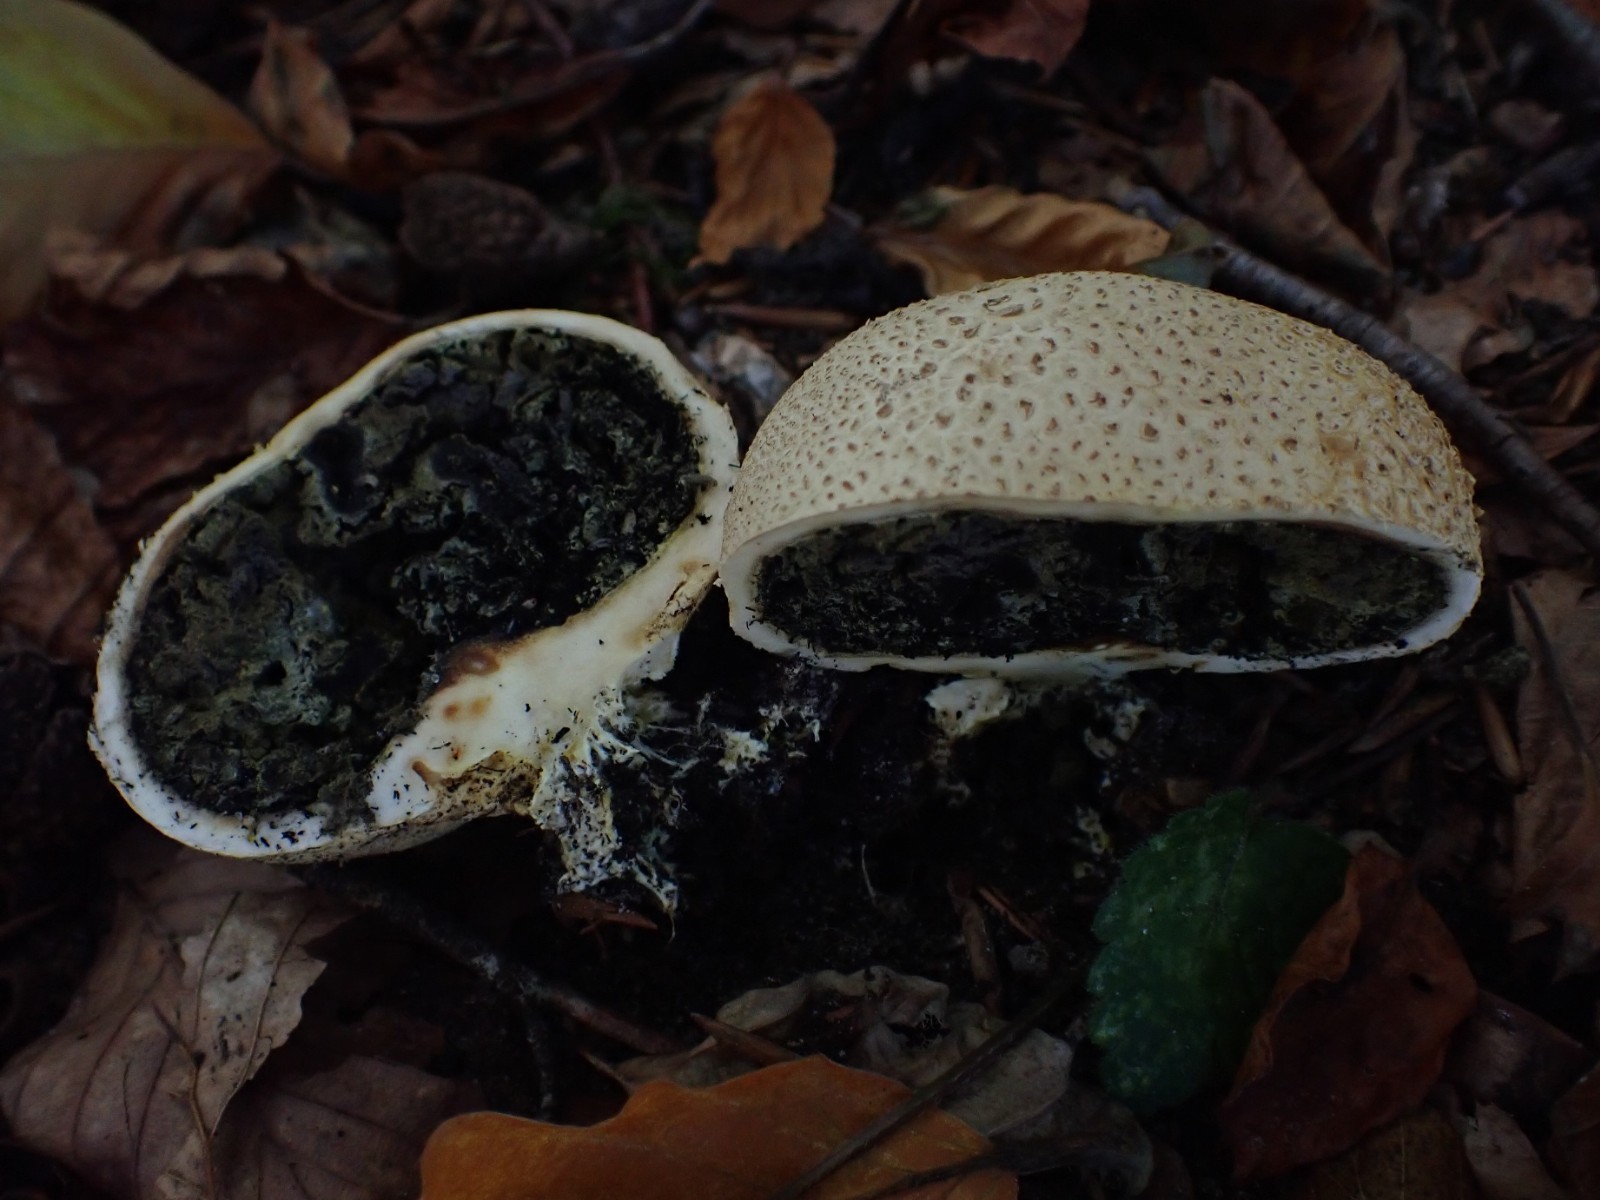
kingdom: Fungi
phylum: Basidiomycota
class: Agaricomycetes
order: Boletales
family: Sclerodermataceae
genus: Scleroderma
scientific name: Scleroderma citrinum
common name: almindelig bruskbold
